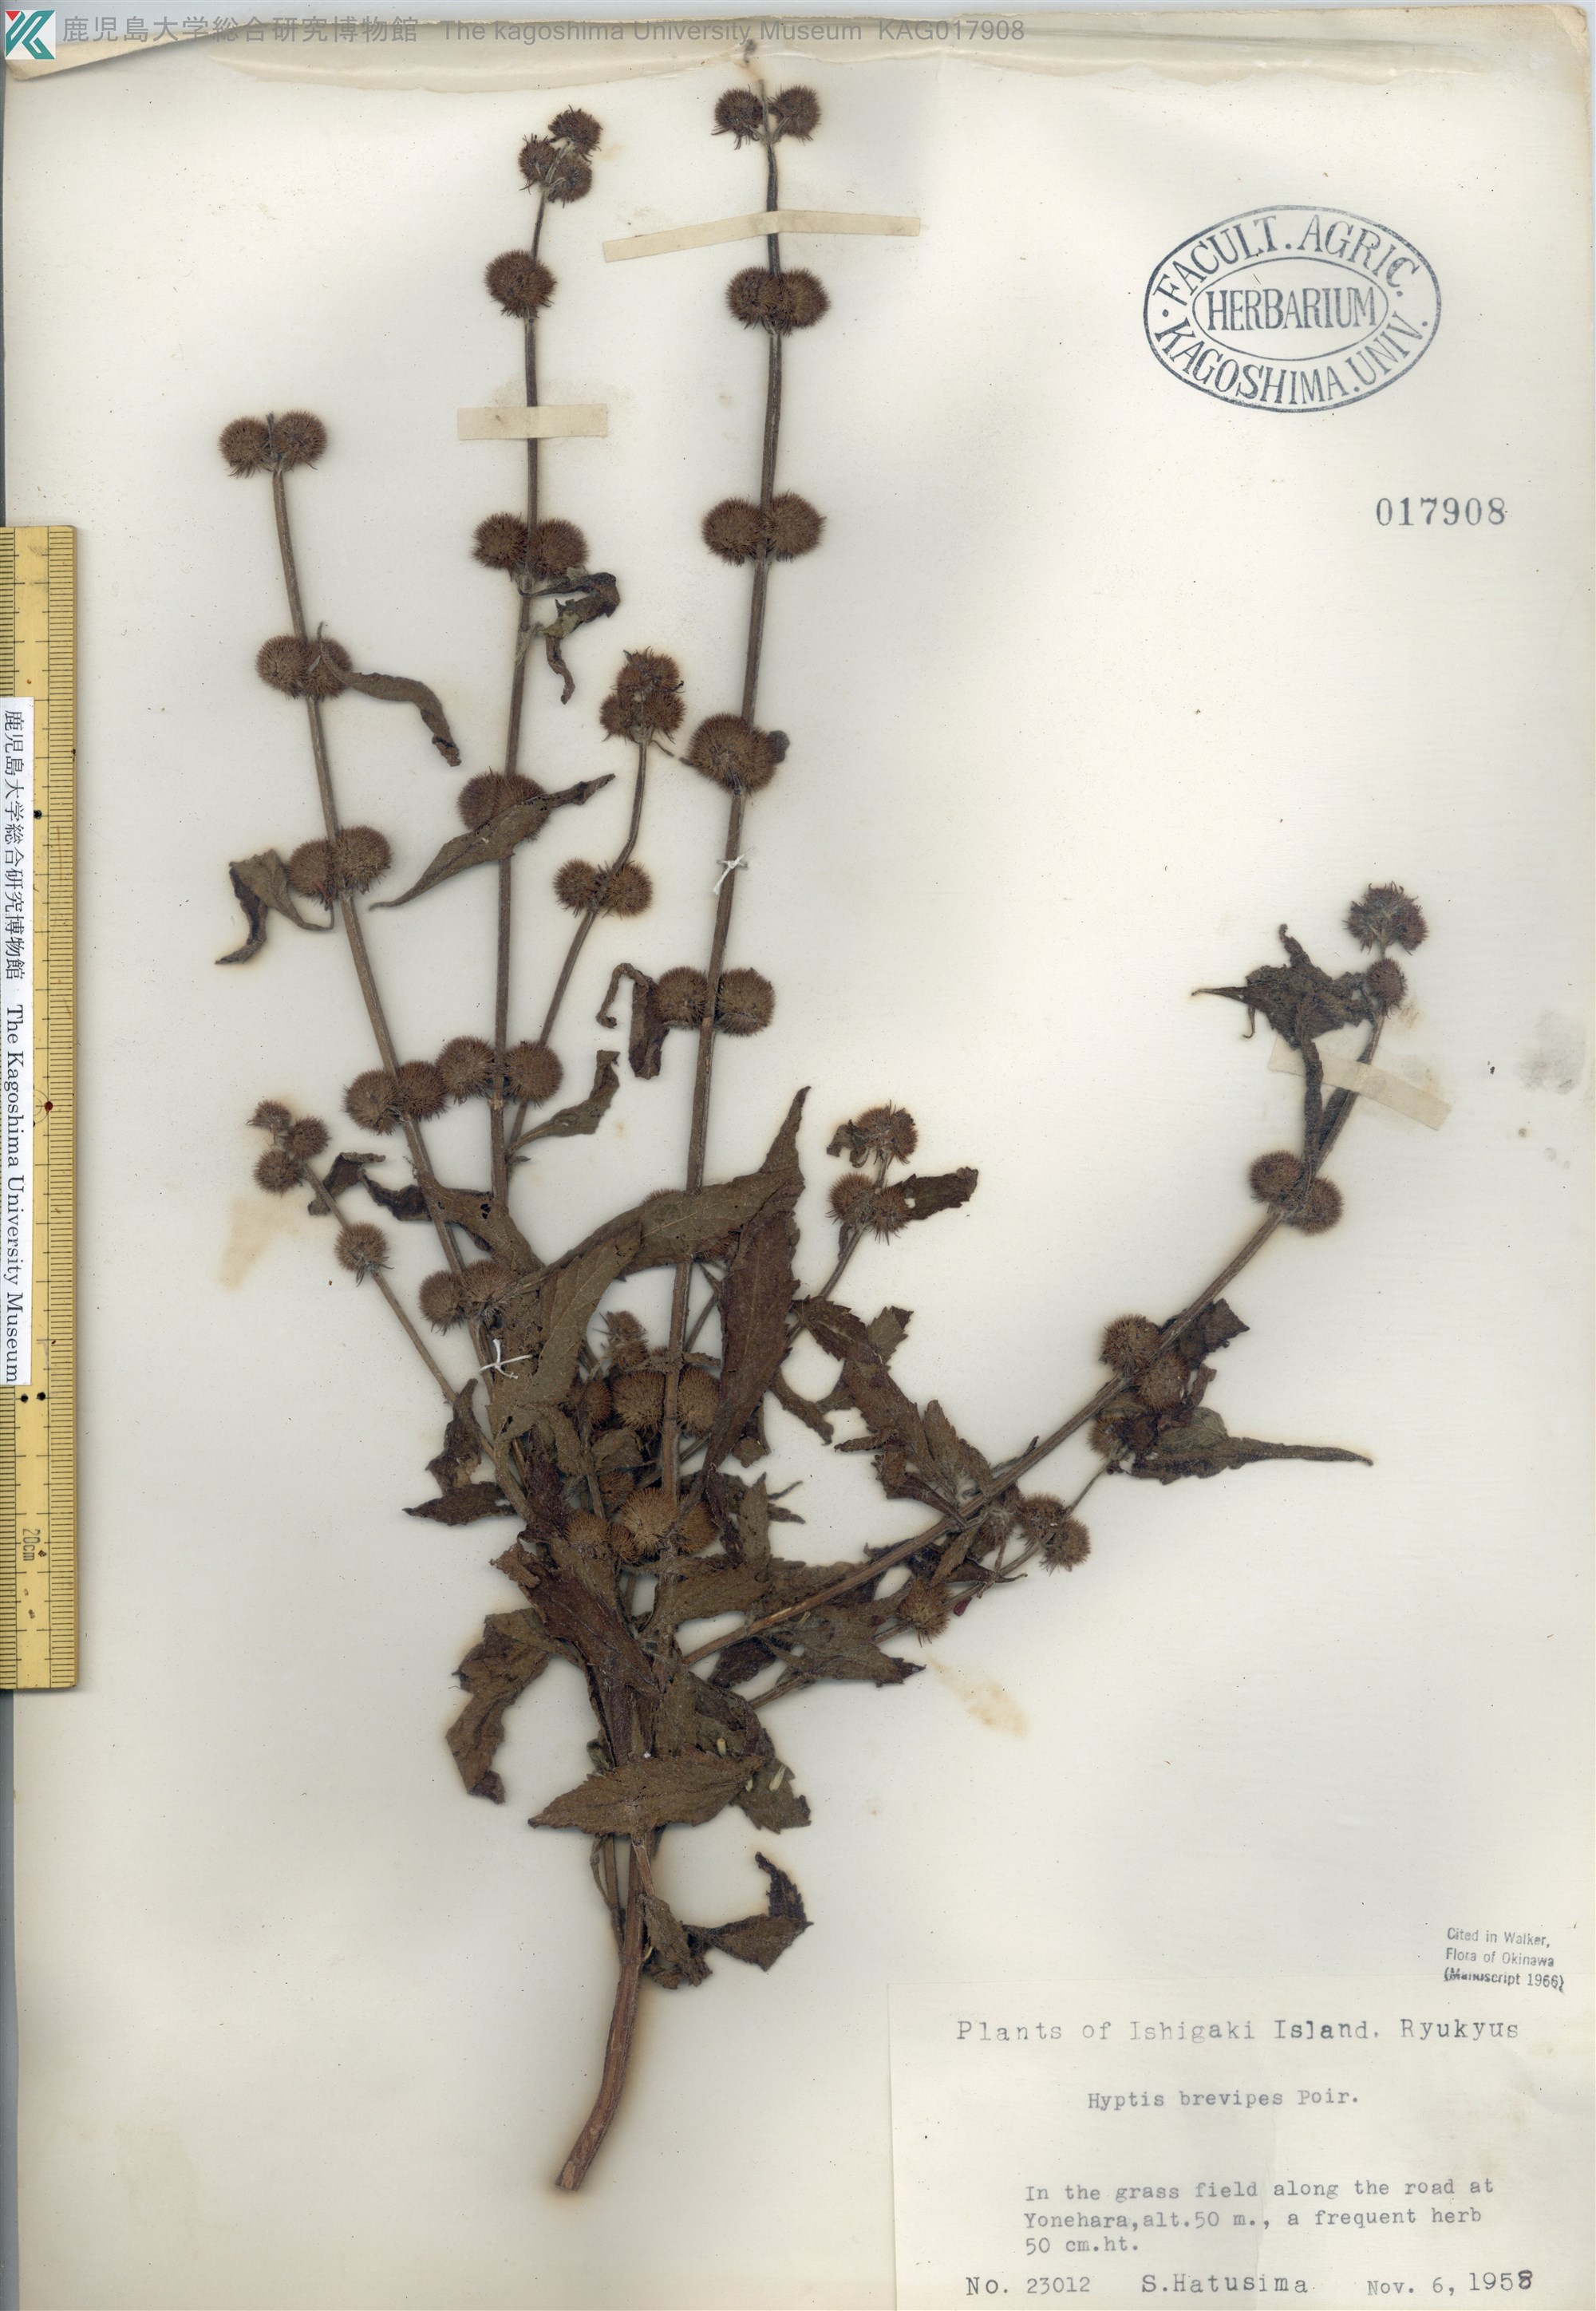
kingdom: Plantae
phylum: Tracheophyta
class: Magnoliopsida
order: Lamiales
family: Lamiaceae
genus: Hyptis
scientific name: Hyptis brevipes
